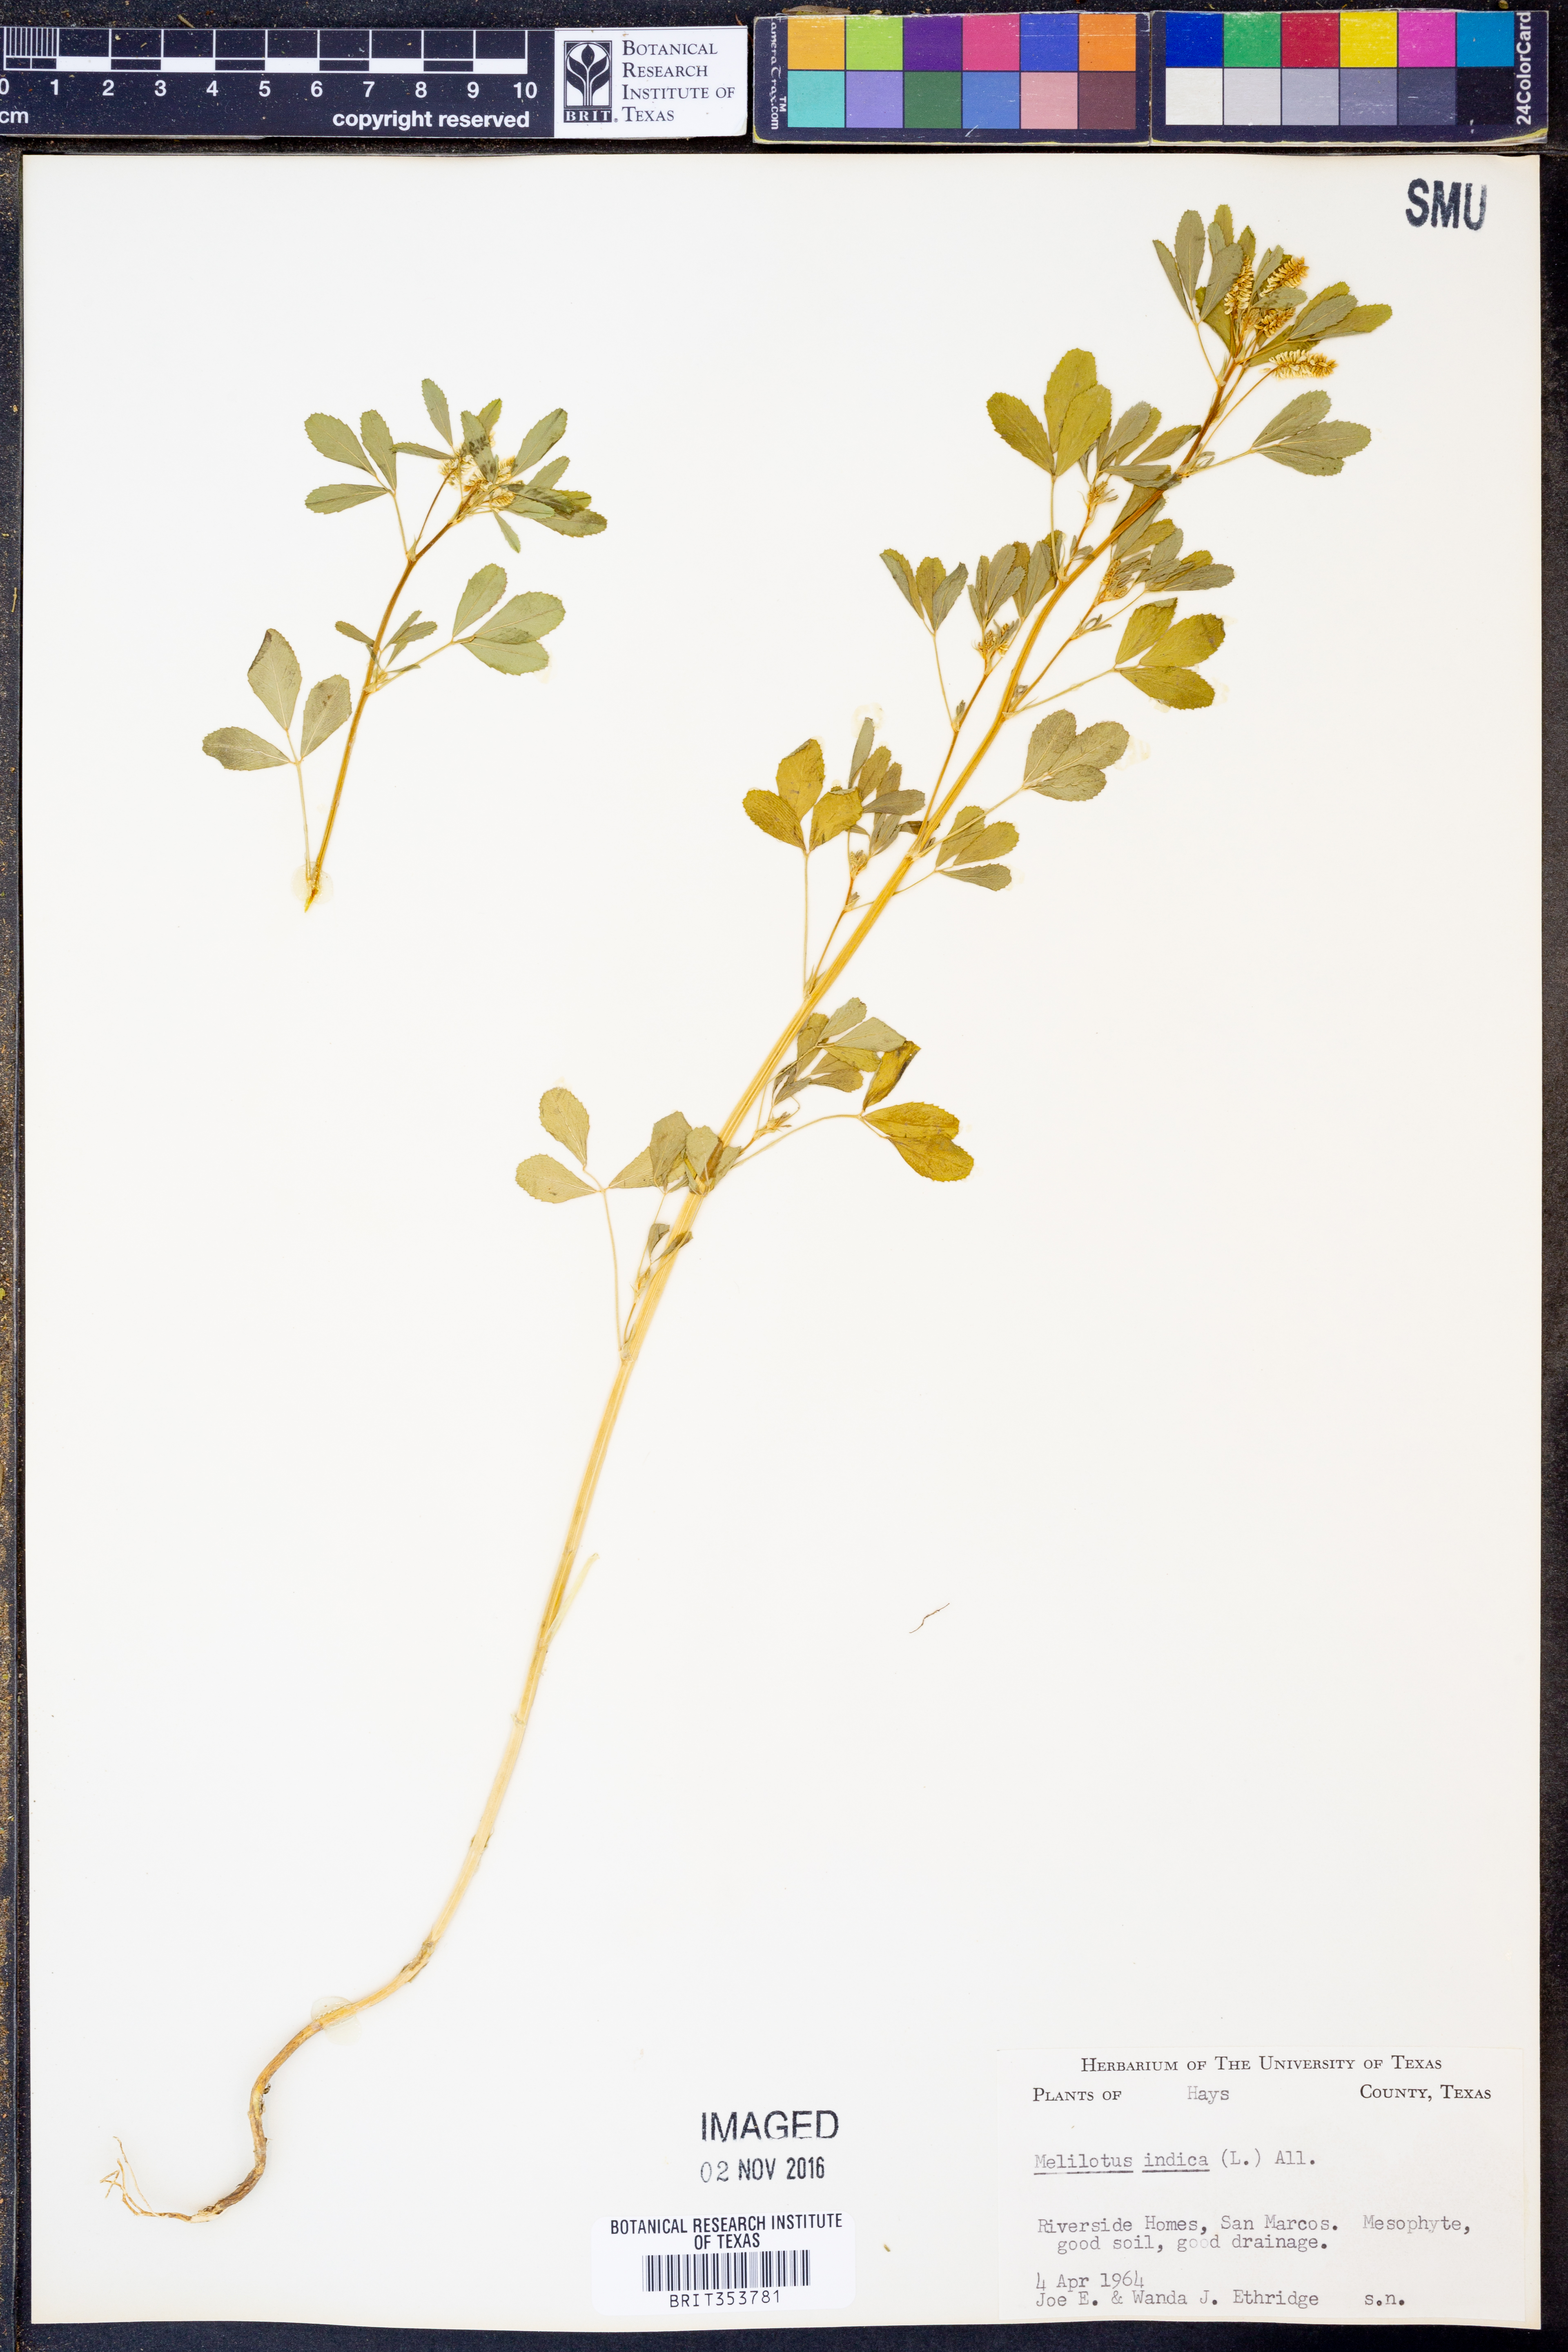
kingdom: Plantae
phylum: Tracheophyta
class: Magnoliopsida
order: Fabales
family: Fabaceae
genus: Melilotus
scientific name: Melilotus indicus
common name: Small melilot
